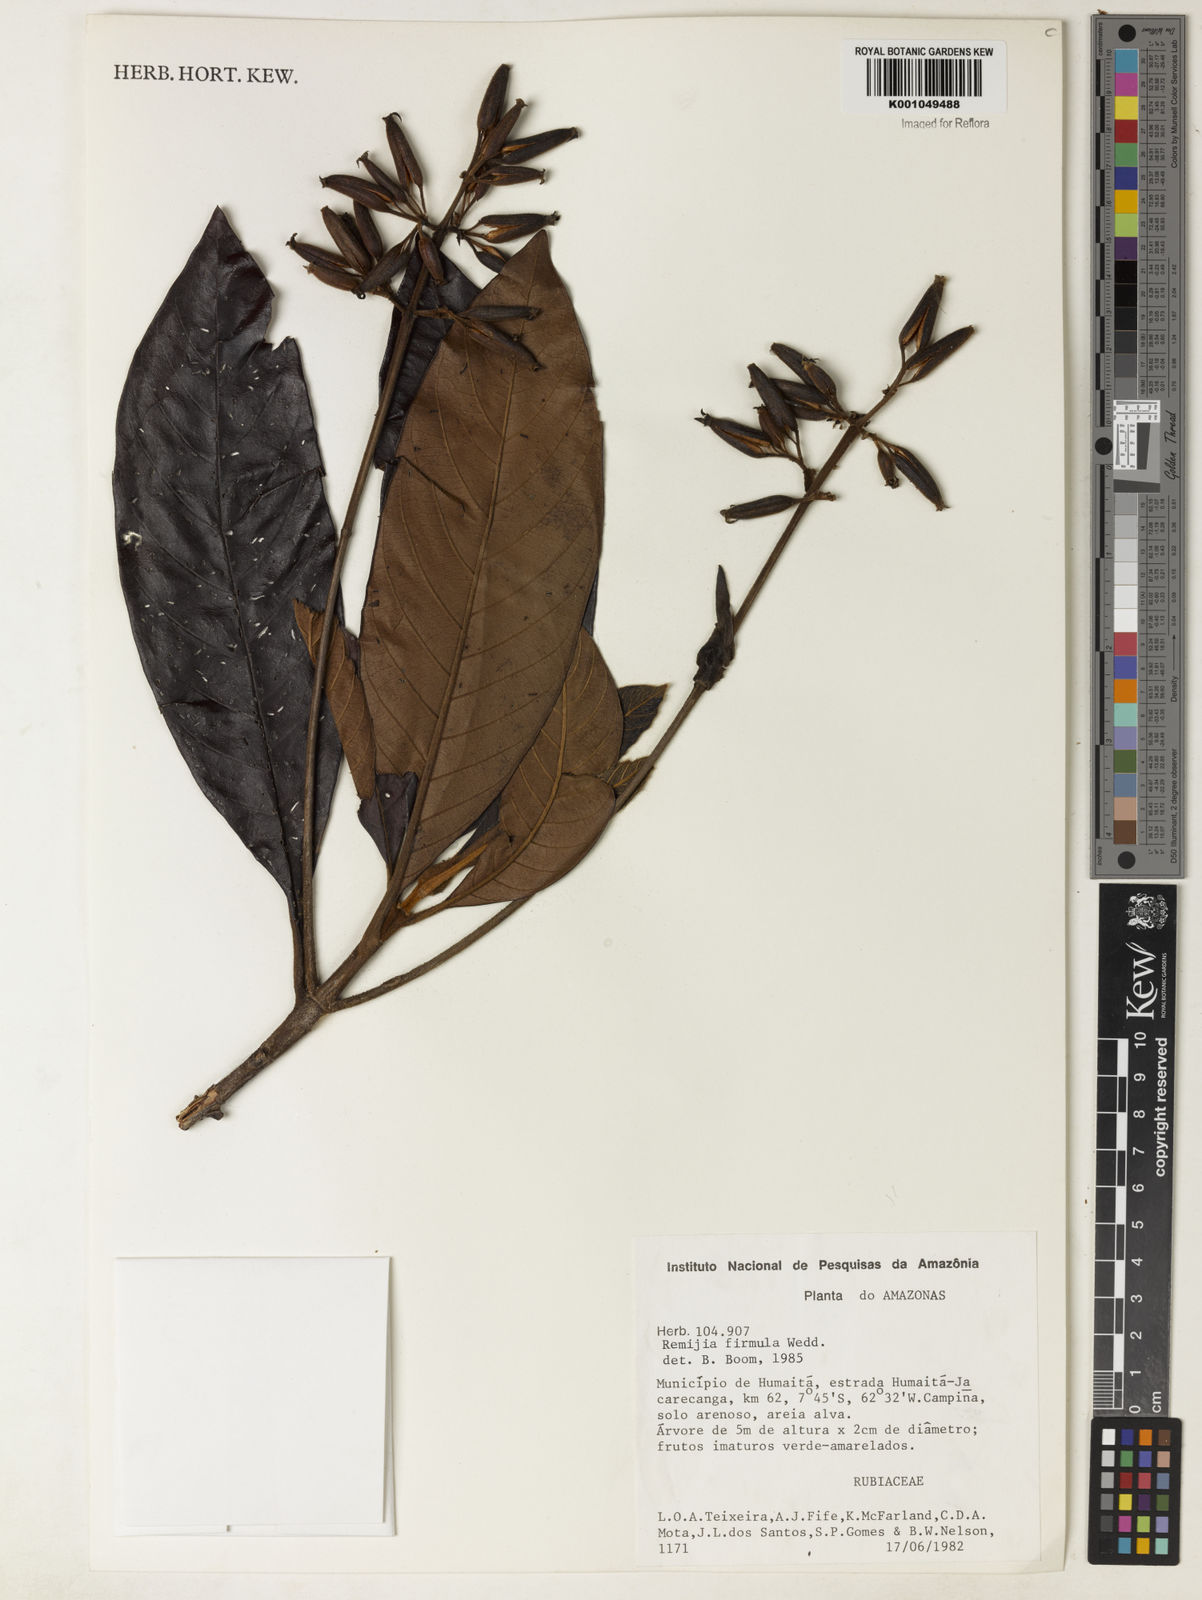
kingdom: Plantae
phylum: Tracheophyta
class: Magnoliopsida
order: Gentianales
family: Rubiaceae
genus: Remijia
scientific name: Remijia firmula
